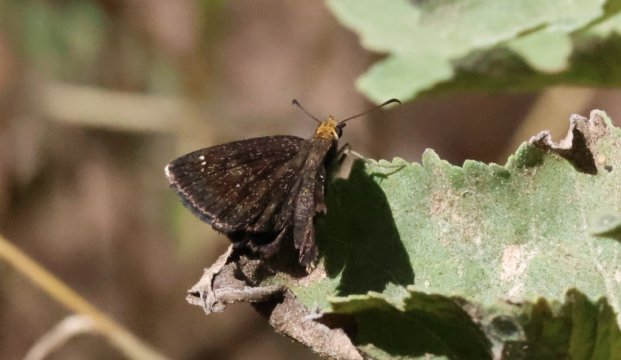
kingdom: Animalia
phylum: Arthropoda
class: Insecta
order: Lepidoptera
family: Hesperiidae
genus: Staphylus
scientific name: Staphylus ceos
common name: Golden-headed Scallopwing
